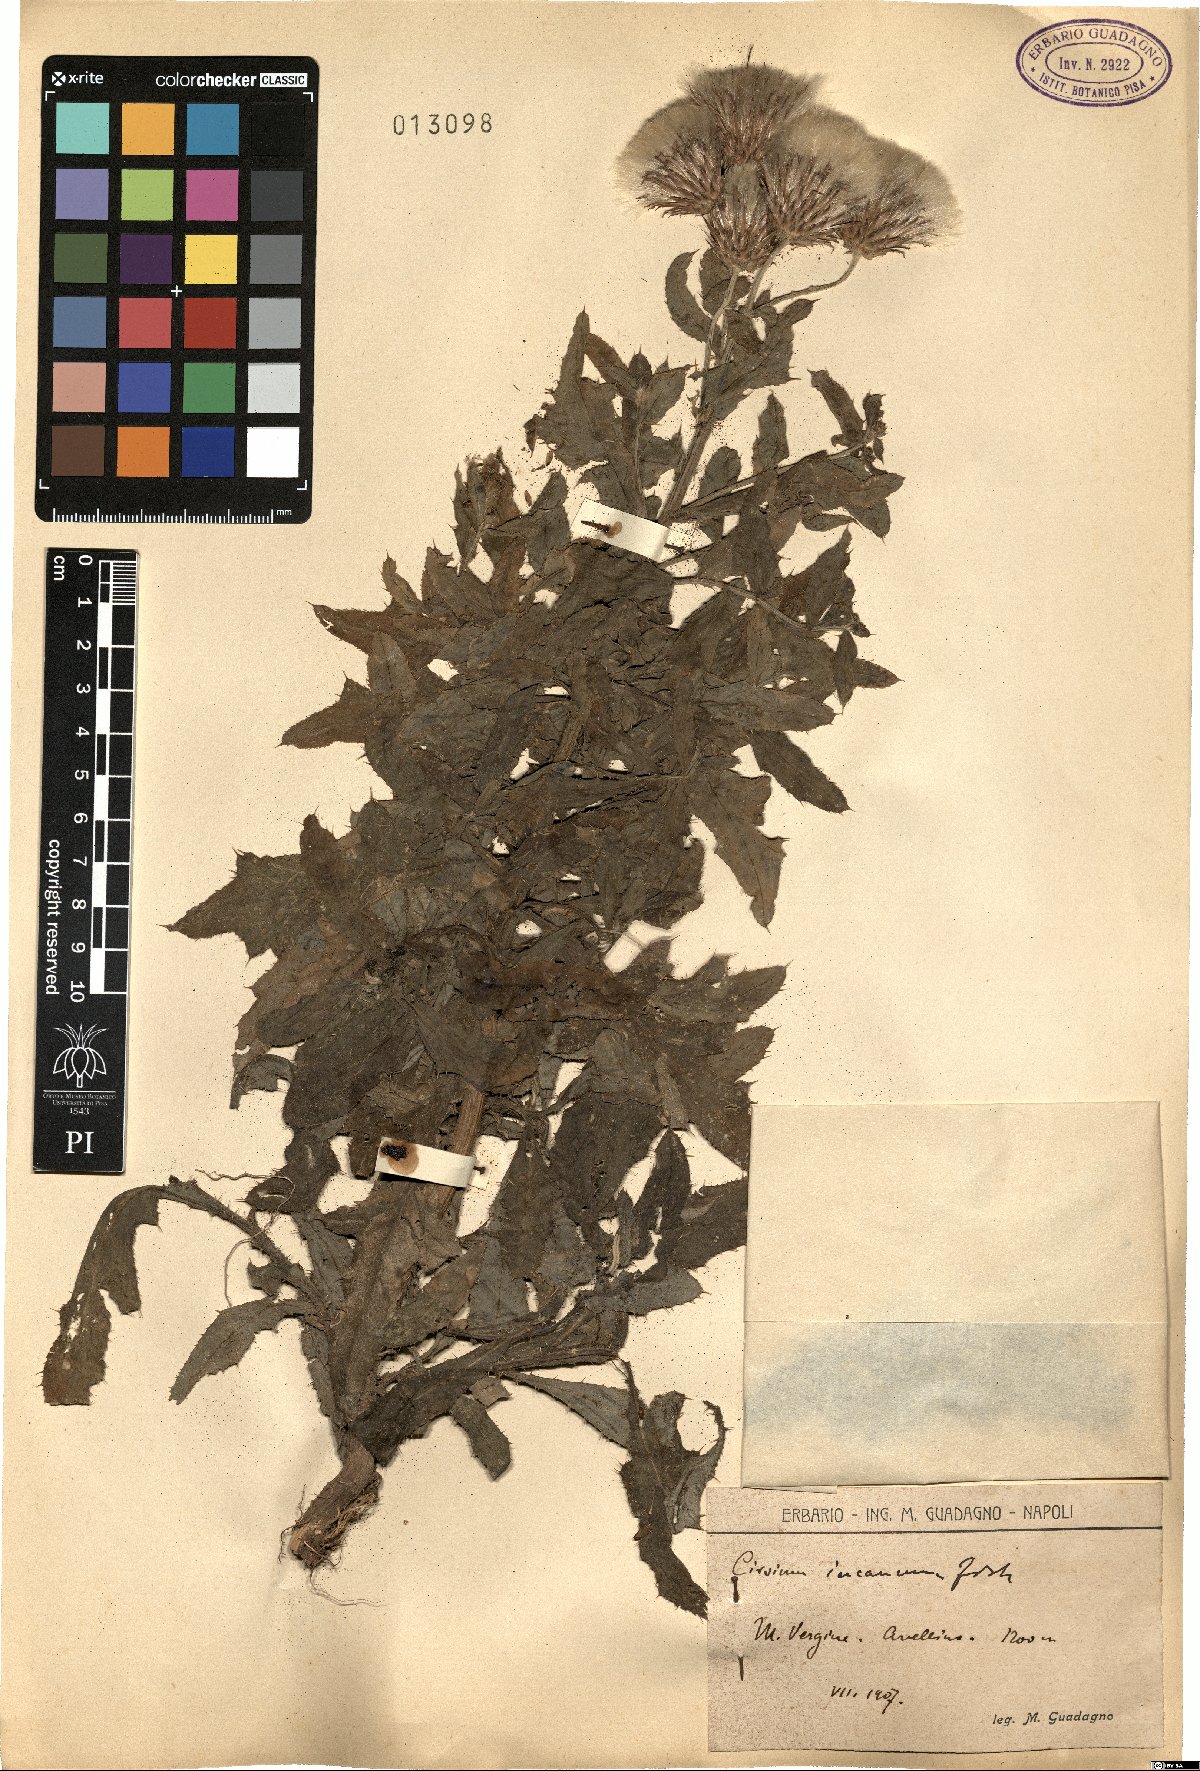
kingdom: Plantae
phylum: Tracheophyta
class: Magnoliopsida
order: Asterales
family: Asteraceae
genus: Cirsium
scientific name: Cirsium arvense
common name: Creeping thistle
